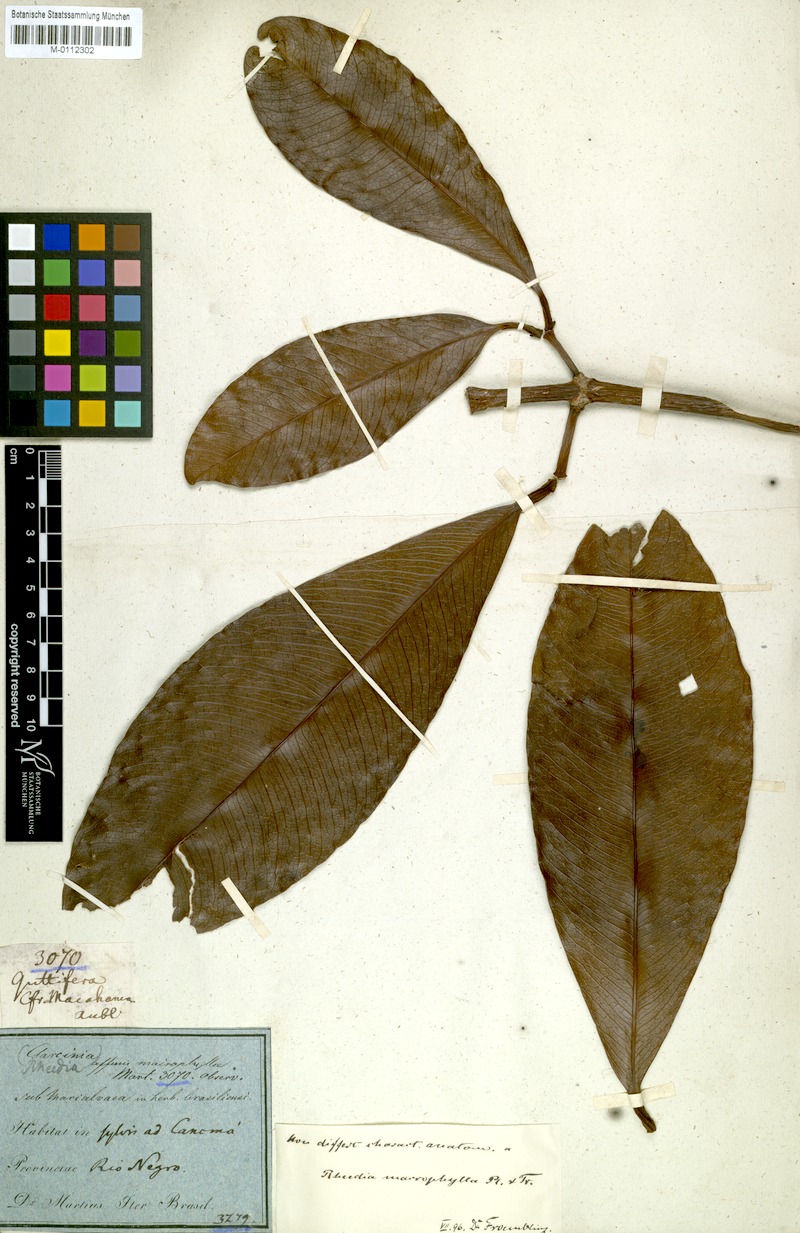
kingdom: Plantae
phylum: Tracheophyta
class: Magnoliopsida
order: Malpighiales
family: Clusiaceae
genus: Garcinia
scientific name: Garcinia macrophylla
